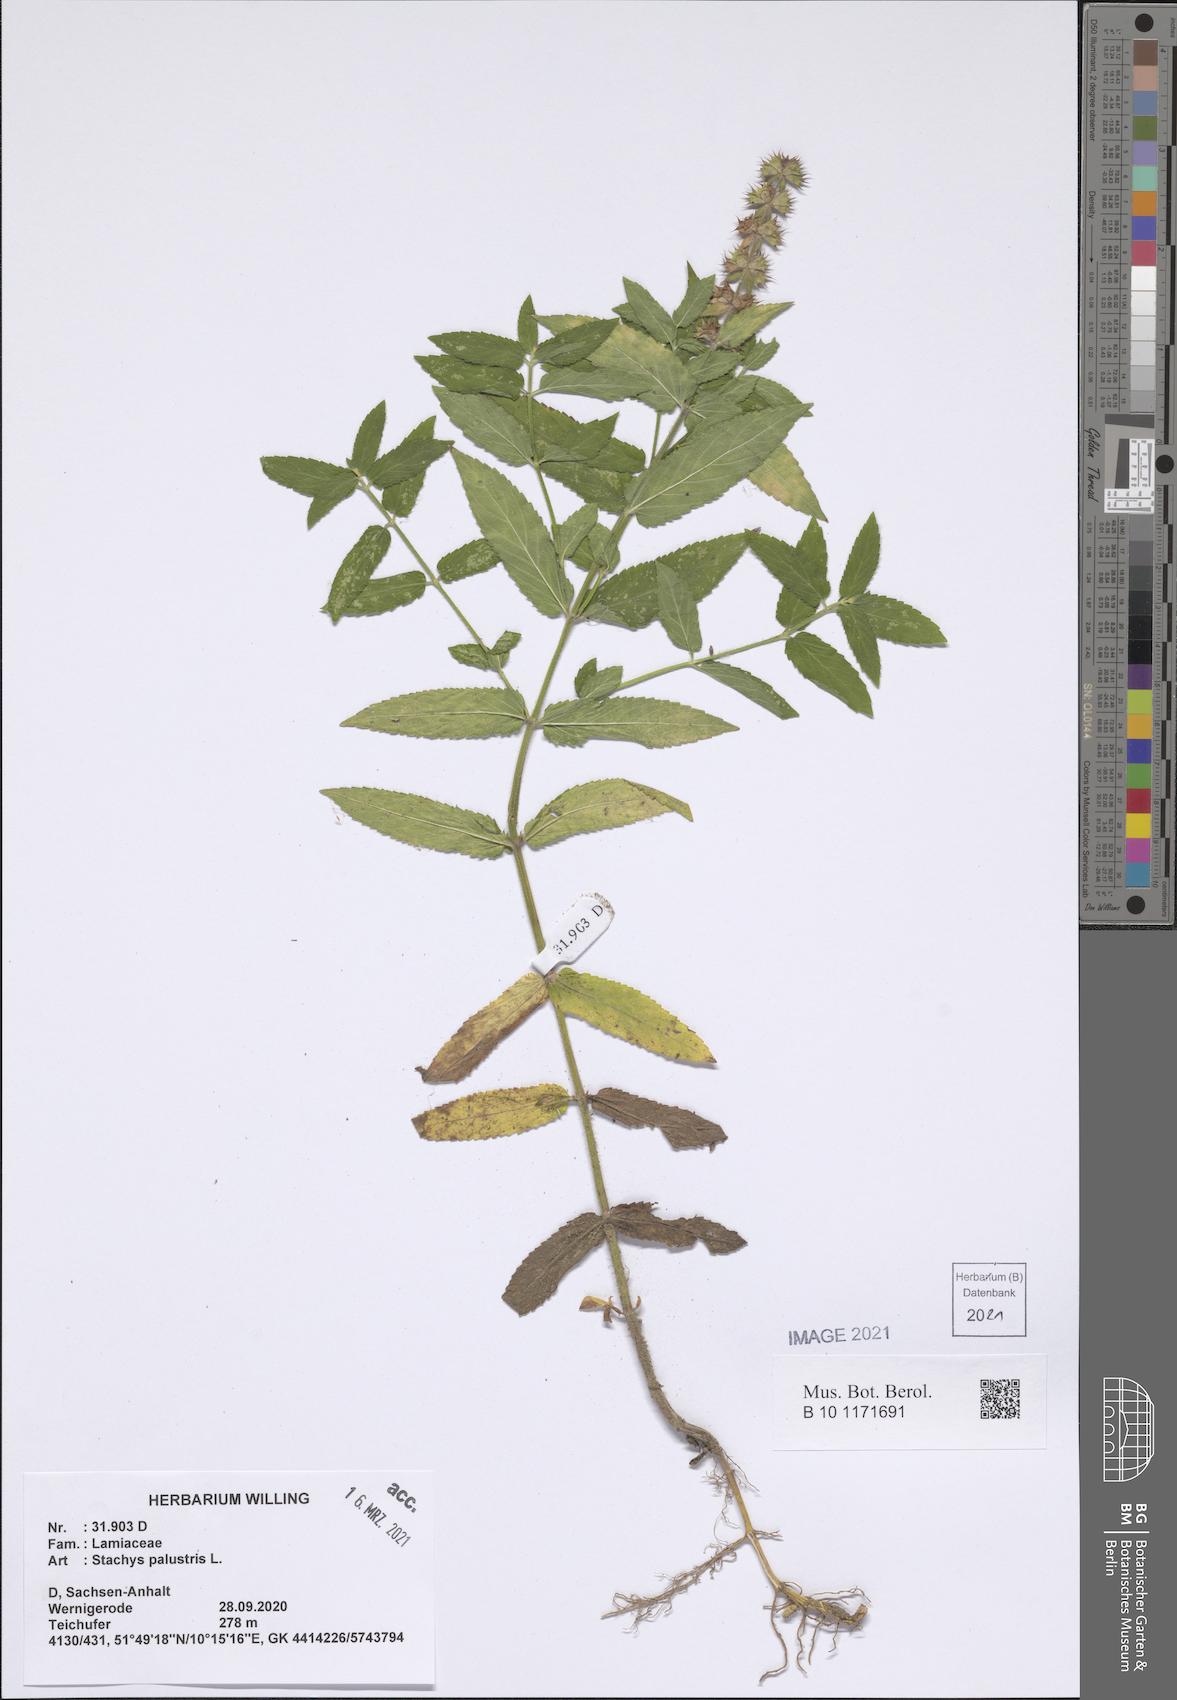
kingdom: Plantae
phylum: Tracheophyta
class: Magnoliopsida
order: Lamiales
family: Lamiaceae
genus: Stachys
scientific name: Stachys palustris
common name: Marsh woundwort
